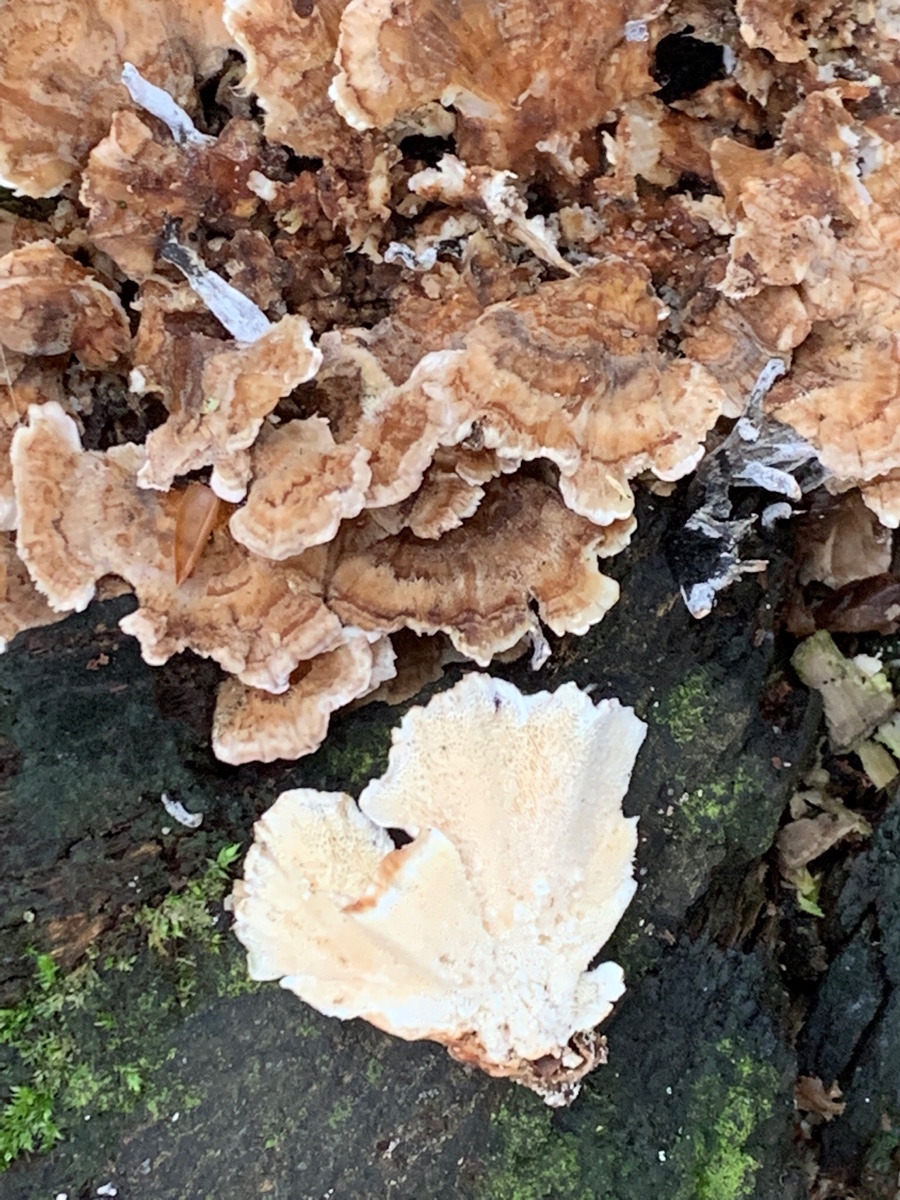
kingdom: Fungi
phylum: Basidiomycota
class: Agaricomycetes
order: Polyporales
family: Polyporaceae
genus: Trametes
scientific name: Trametes ochracea
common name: bæltet læderporesvamp
